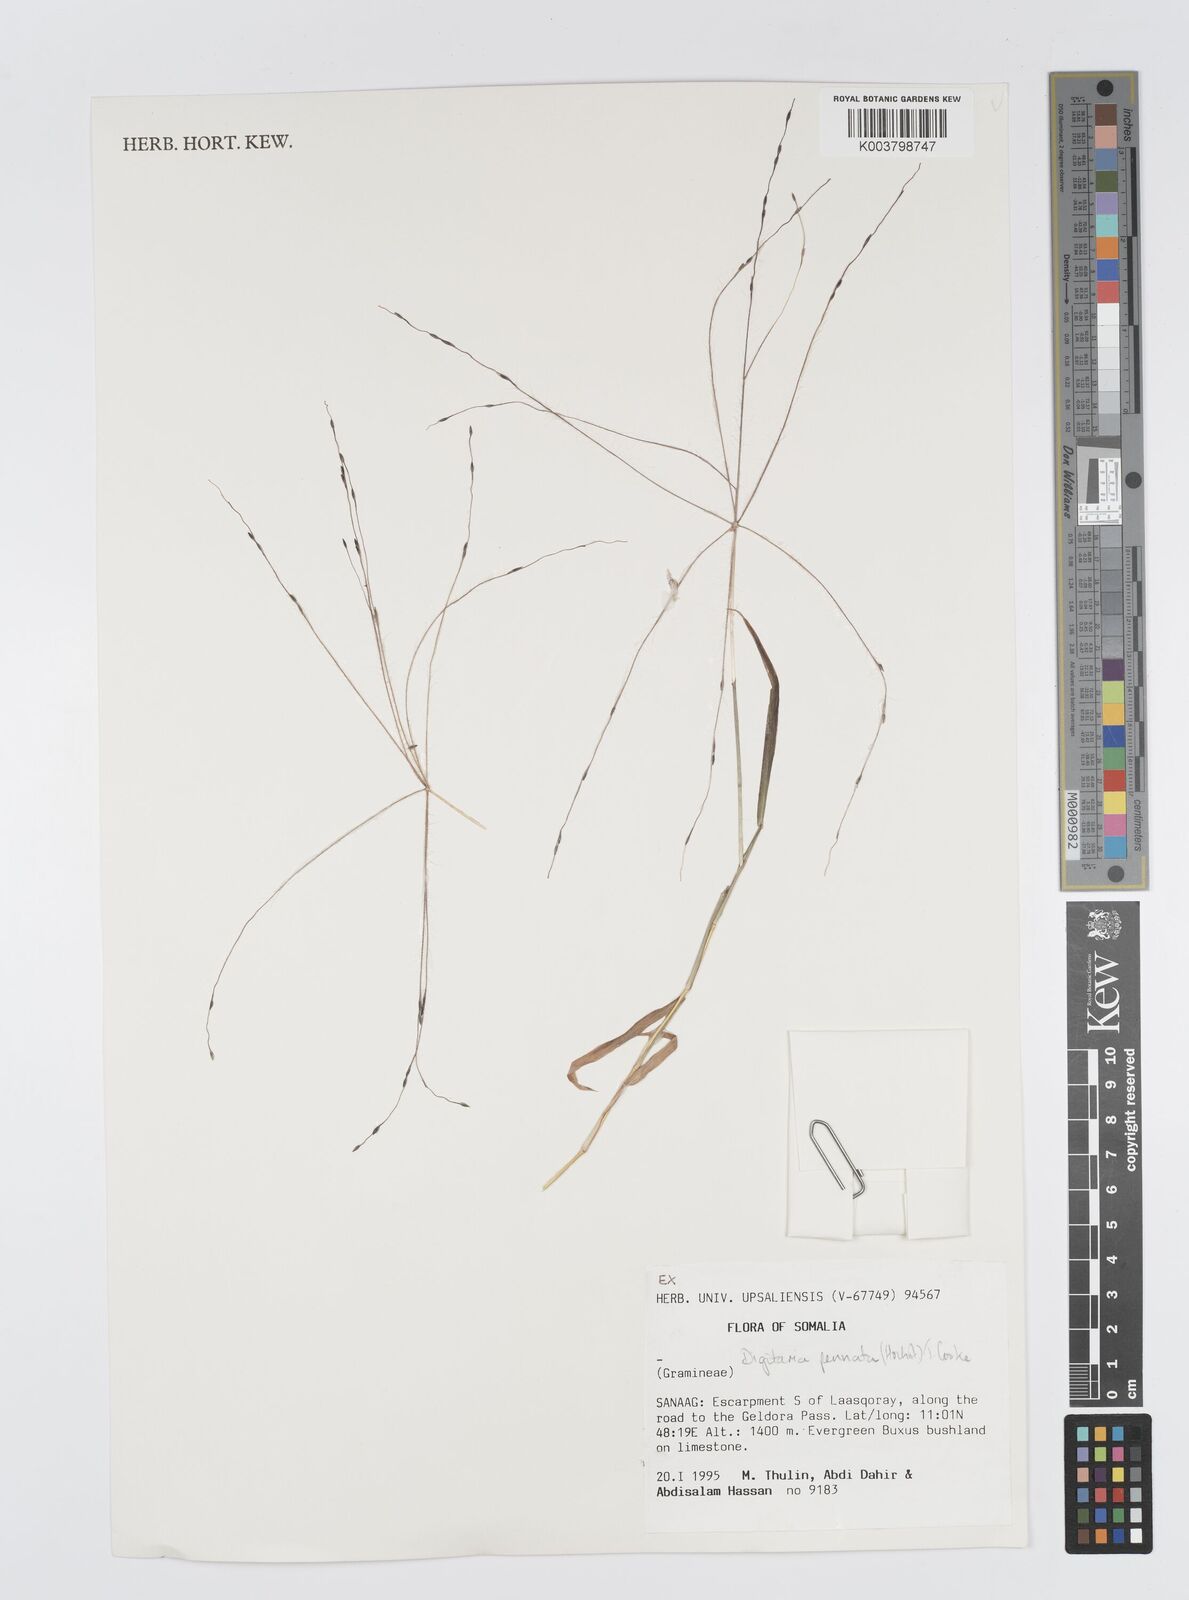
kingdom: Plantae
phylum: Tracheophyta
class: Liliopsida
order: Poales
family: Poaceae
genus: Digitaria
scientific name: Digitaria pennata
